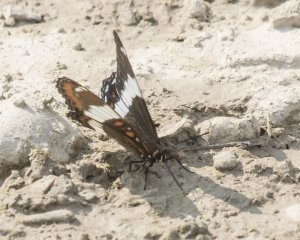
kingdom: Animalia
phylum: Arthropoda
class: Insecta
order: Lepidoptera
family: Nymphalidae
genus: Limenitis
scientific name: Limenitis arthemis
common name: Red-spotted Admiral
